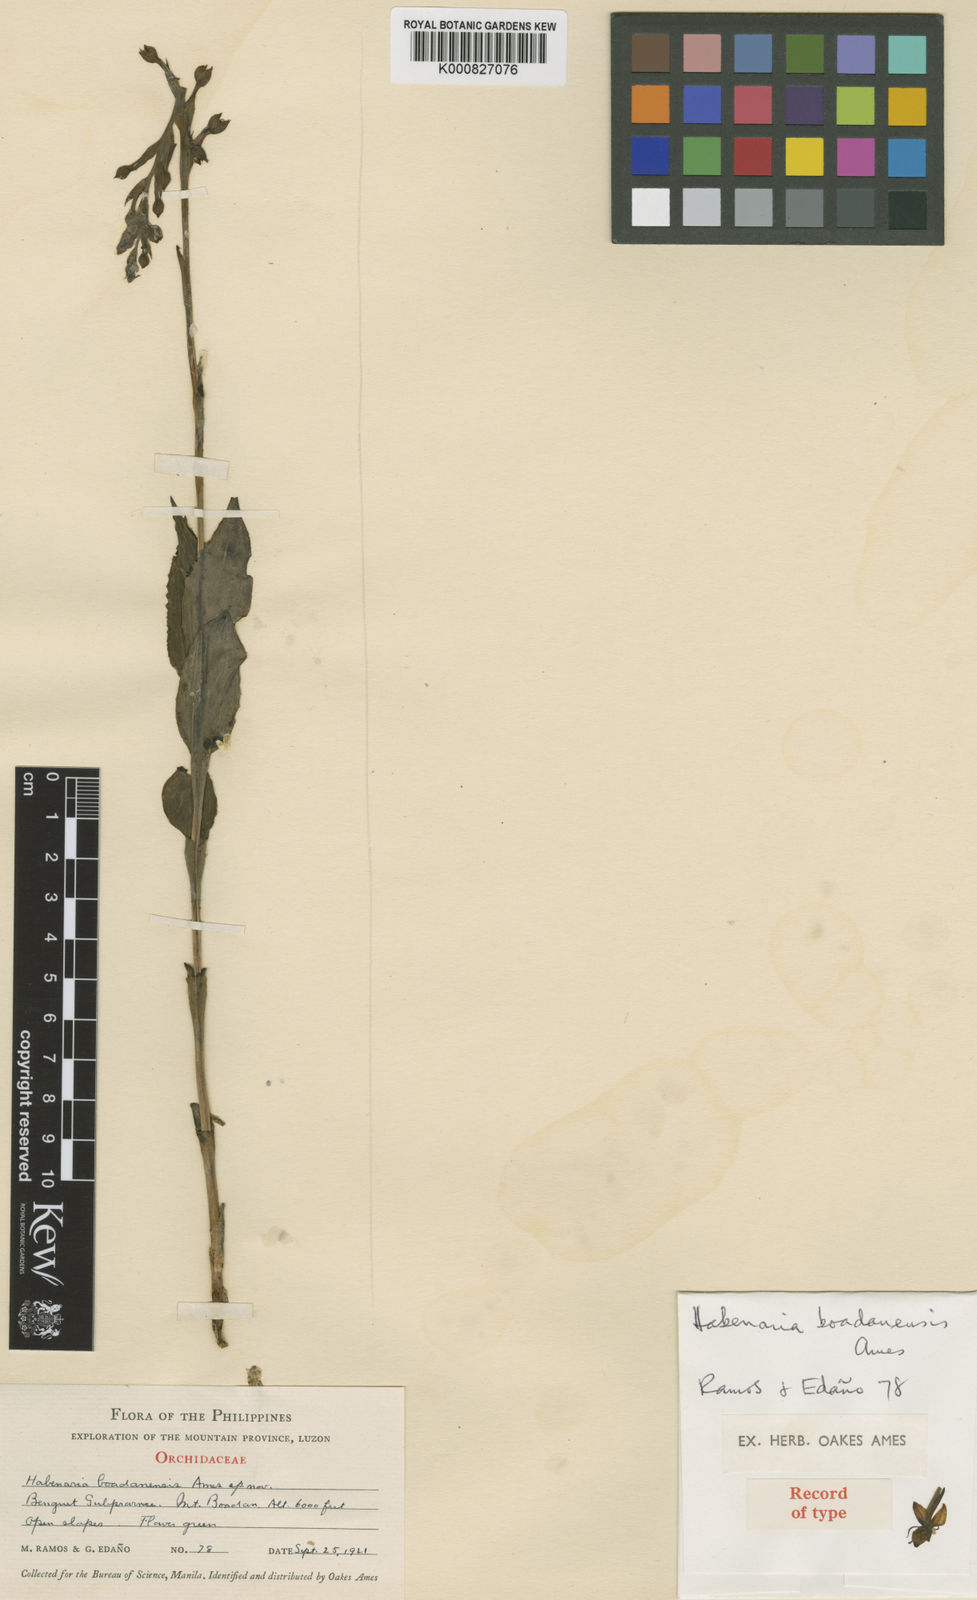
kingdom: Plantae
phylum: Tracheophyta
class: Liliopsida
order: Asparagales
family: Orchidaceae
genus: Habenaria
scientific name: Habenaria boadanensis
